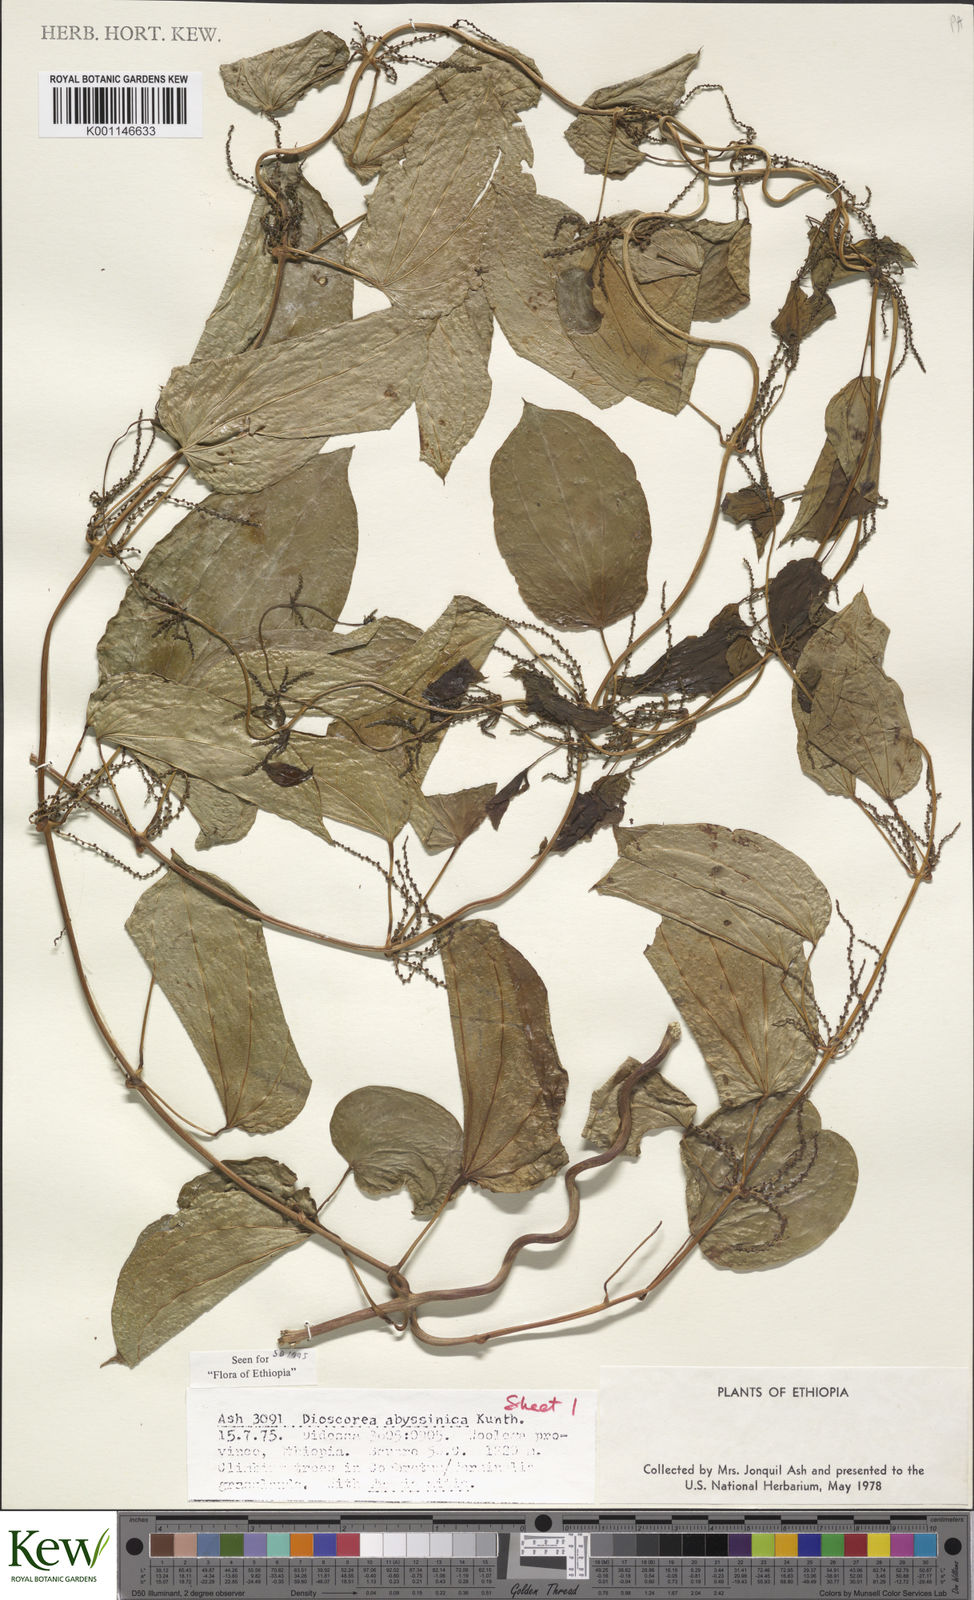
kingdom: Plantae
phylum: Tracheophyta
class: Liliopsida
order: Dioscoreales
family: Dioscoreaceae
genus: Dioscorea
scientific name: Dioscorea abyssinica
